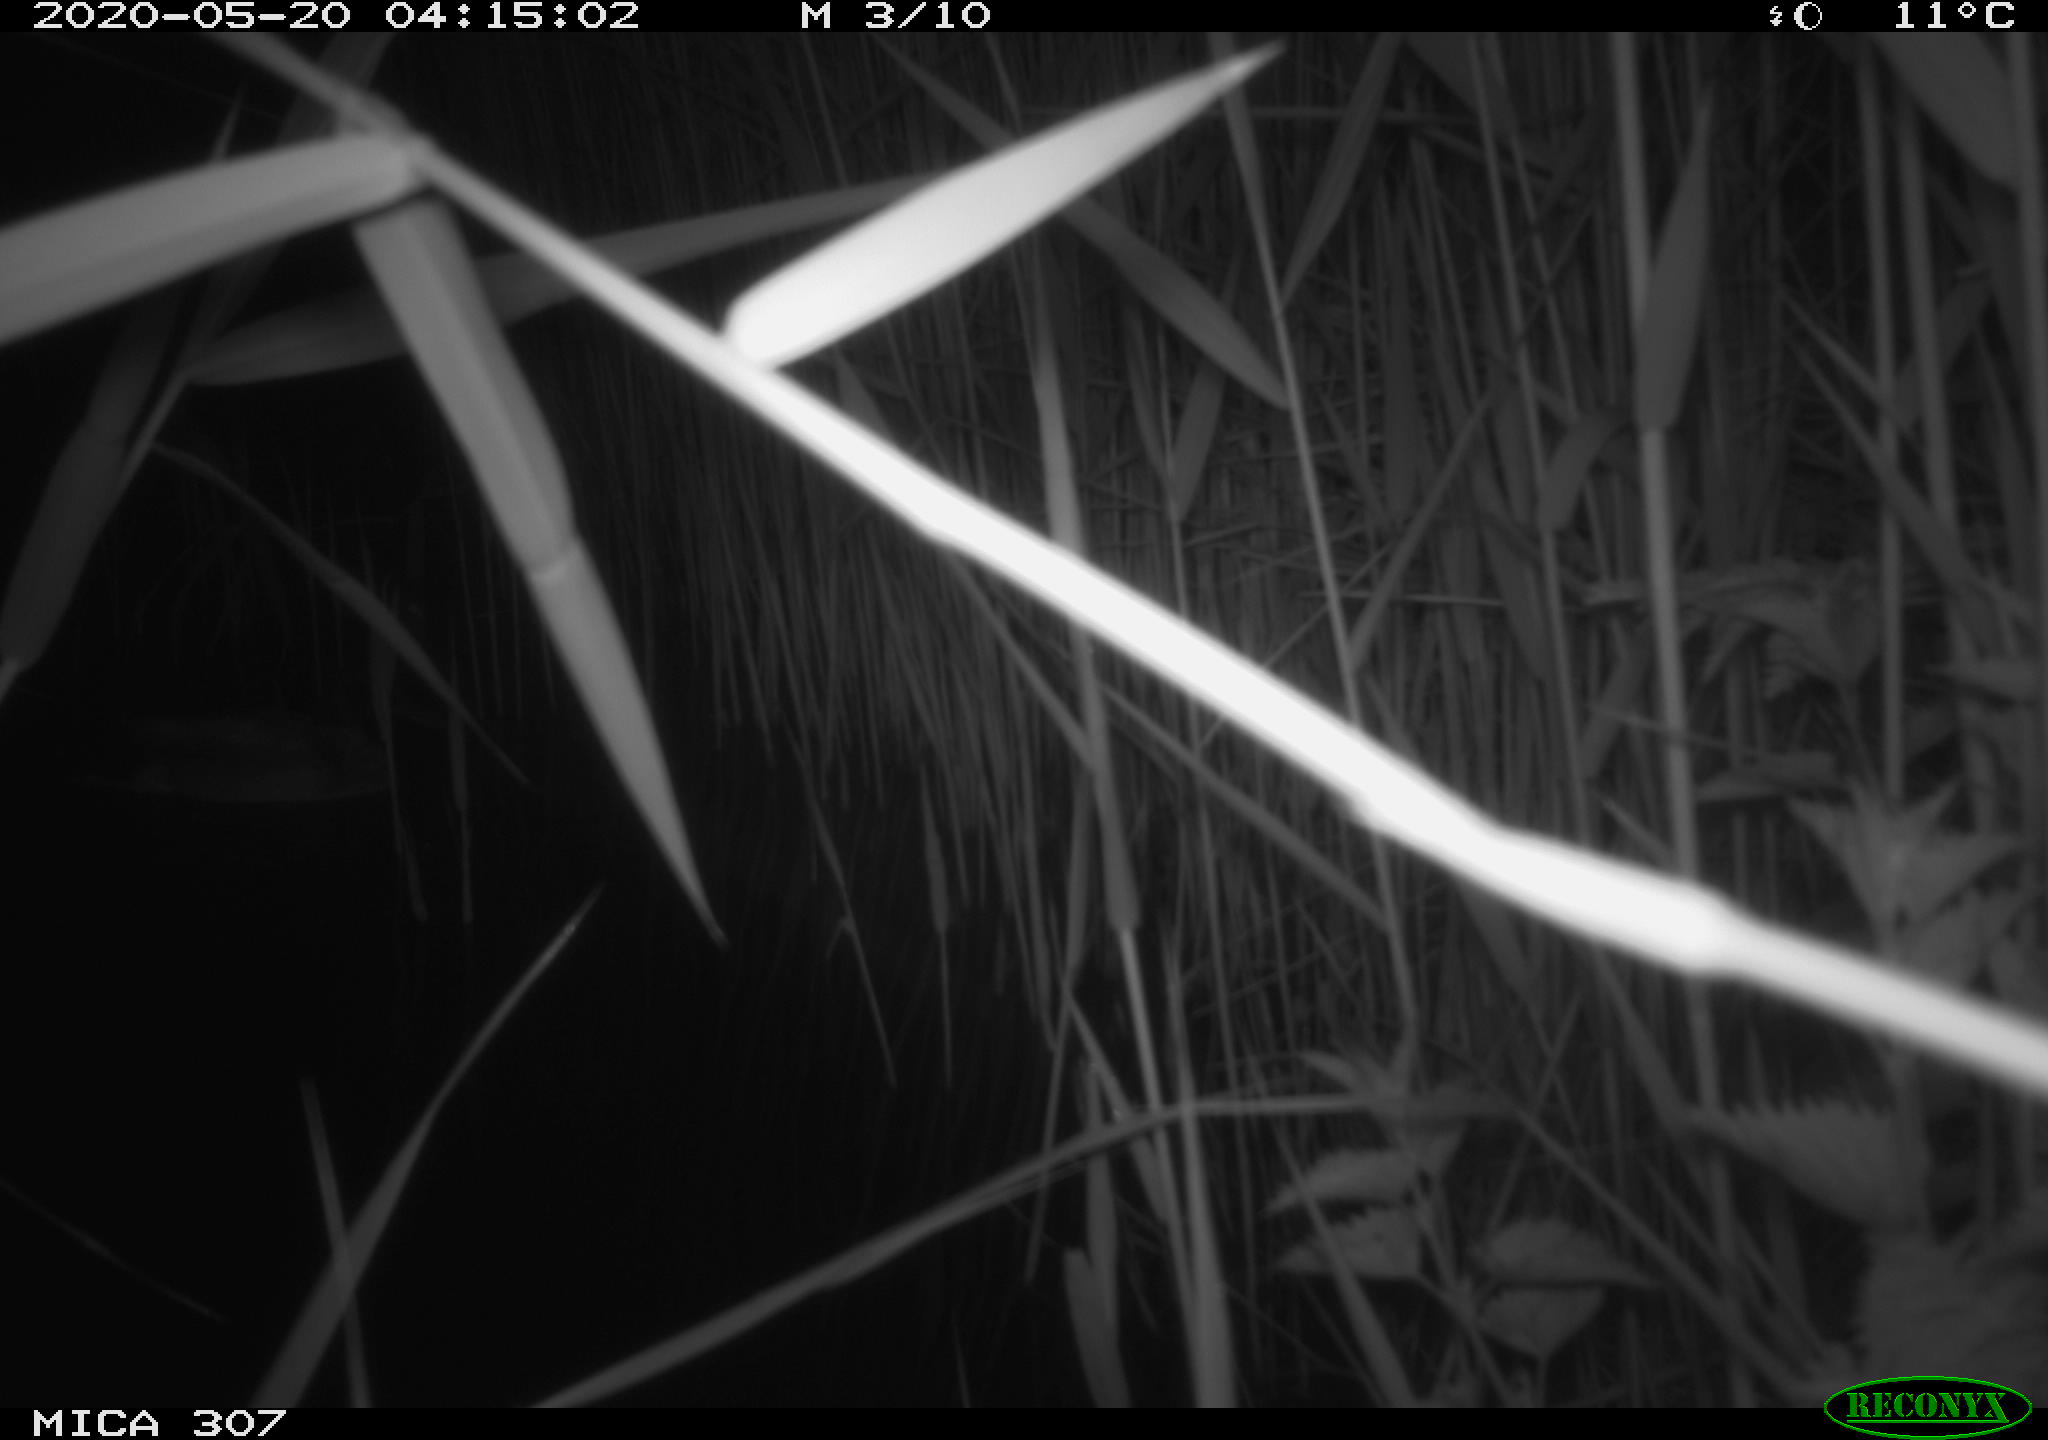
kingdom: Animalia
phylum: Chordata
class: Aves
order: Anseriformes
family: Anatidae
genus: Anas
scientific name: Anas platyrhynchos
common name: Mallard
